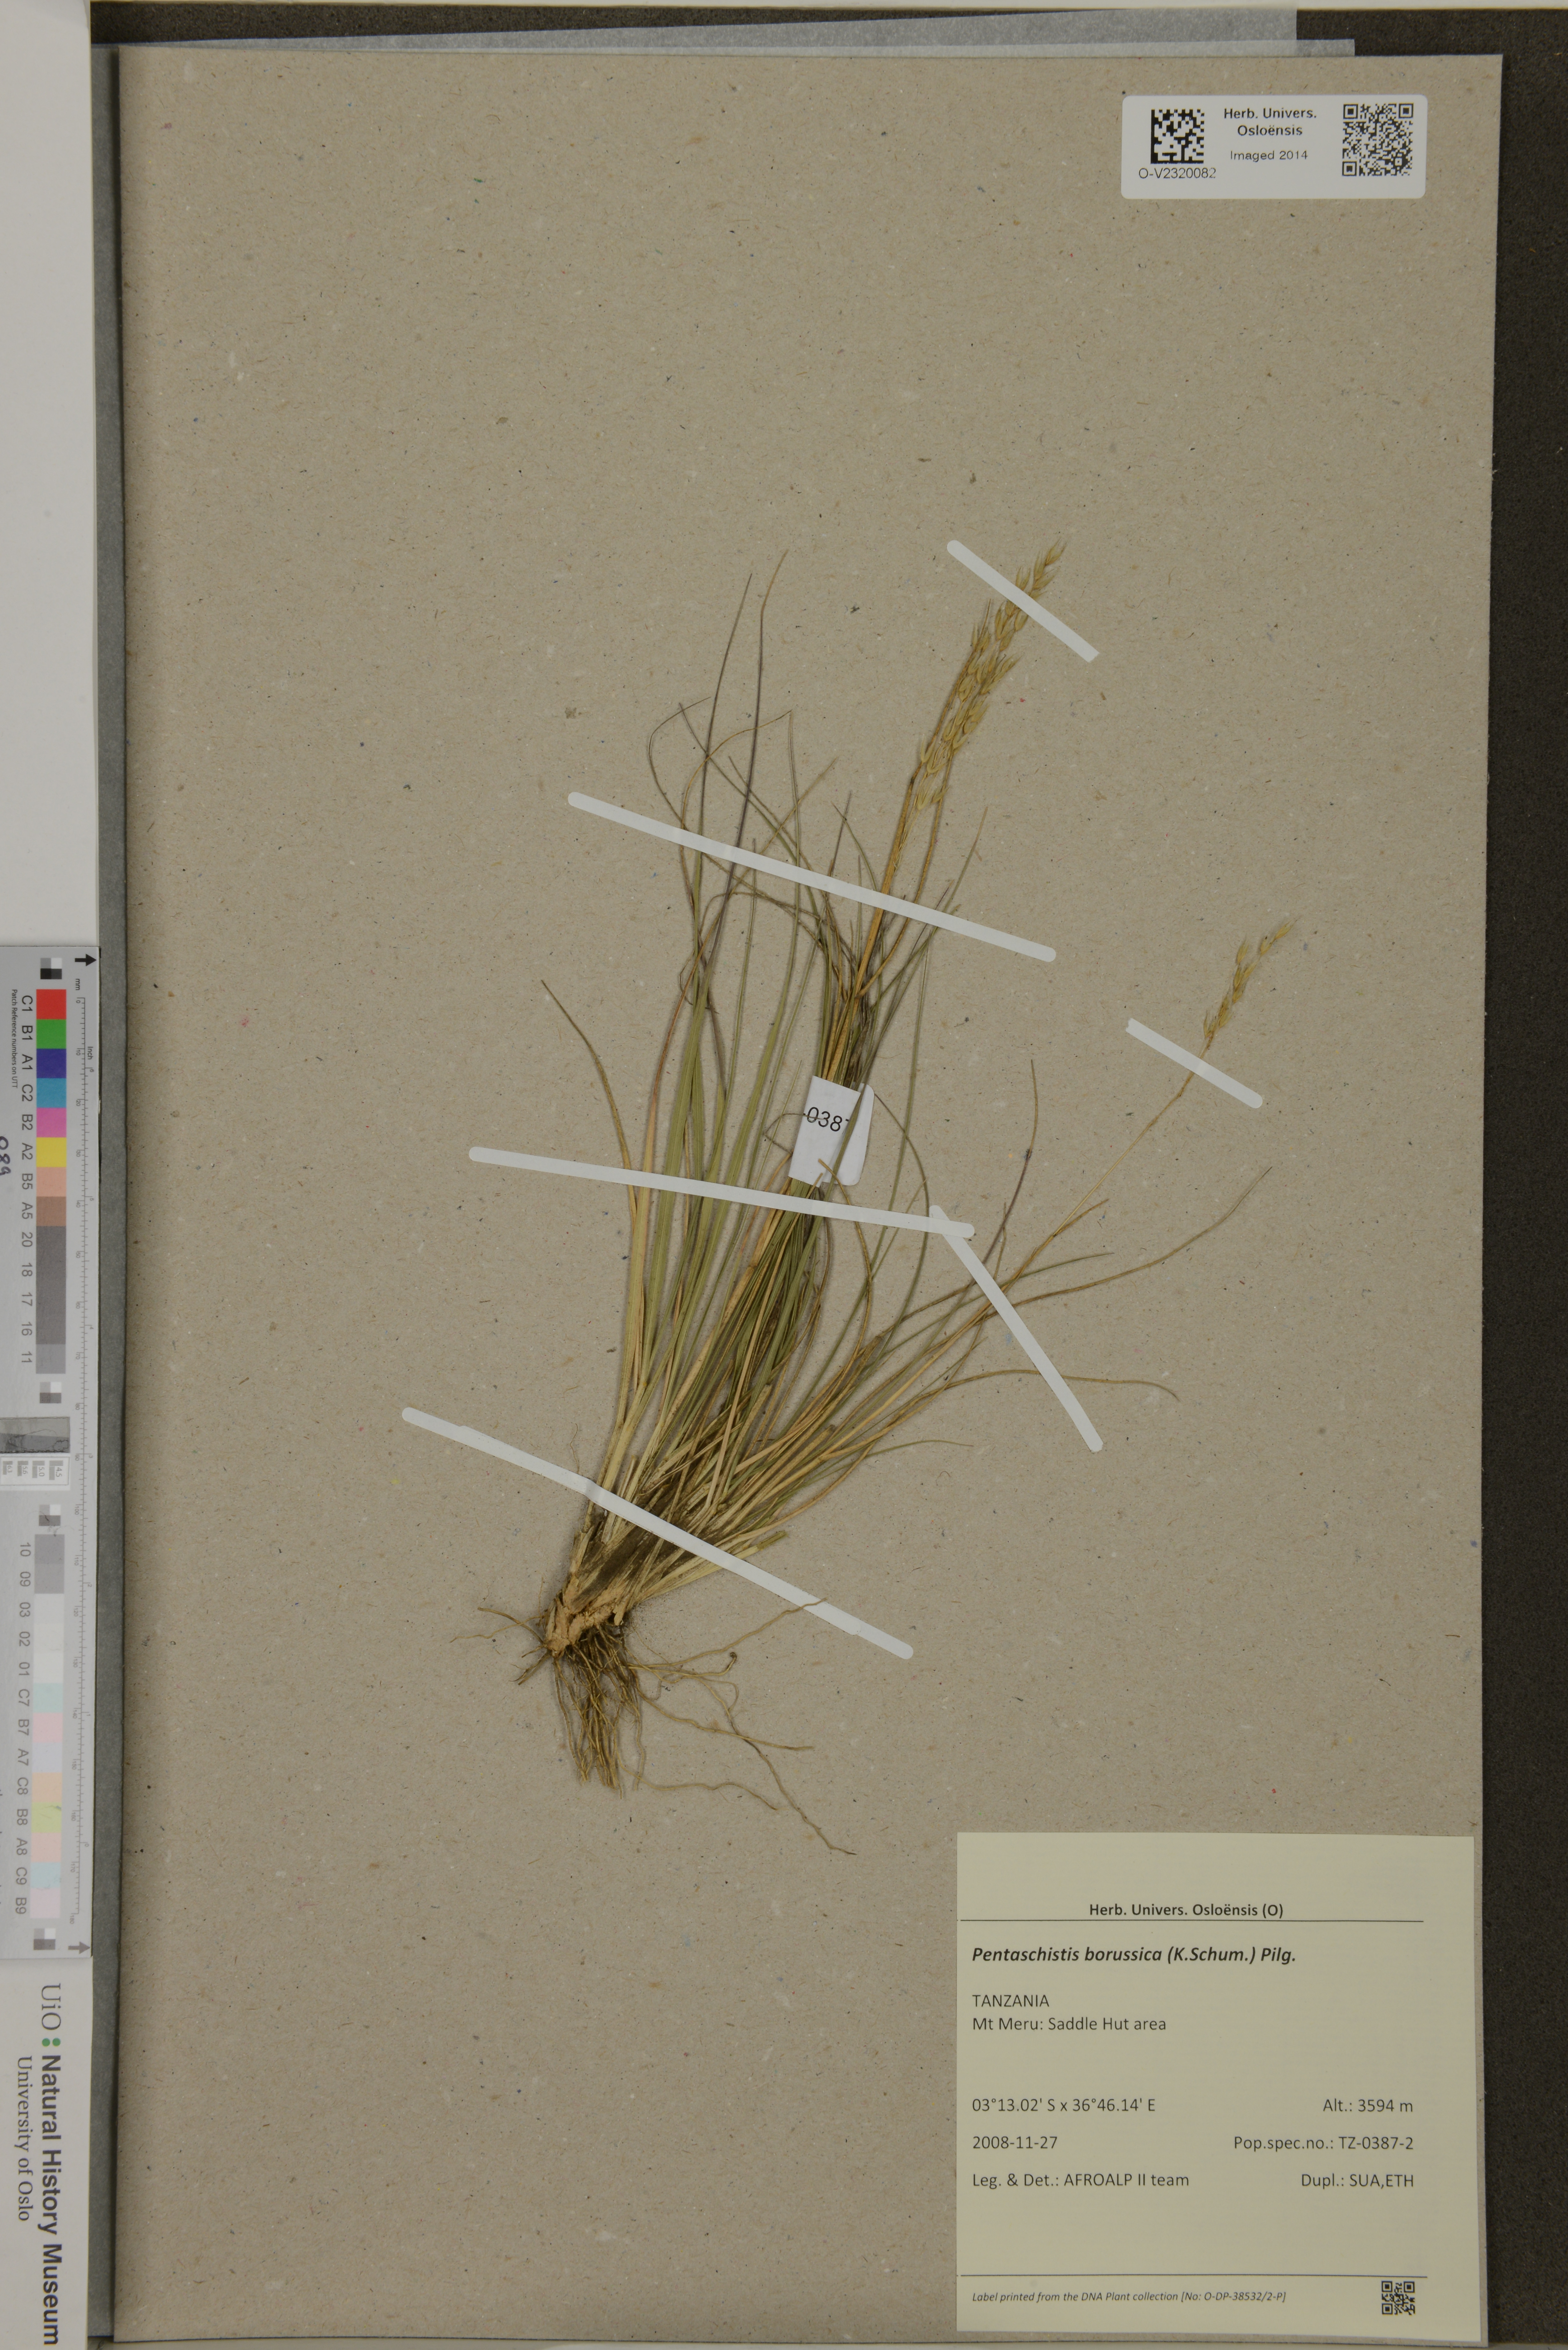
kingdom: Plantae
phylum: Tracheophyta
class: Liliopsida
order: Poales
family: Poaceae
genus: Pentameris
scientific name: Pentameris borussica
